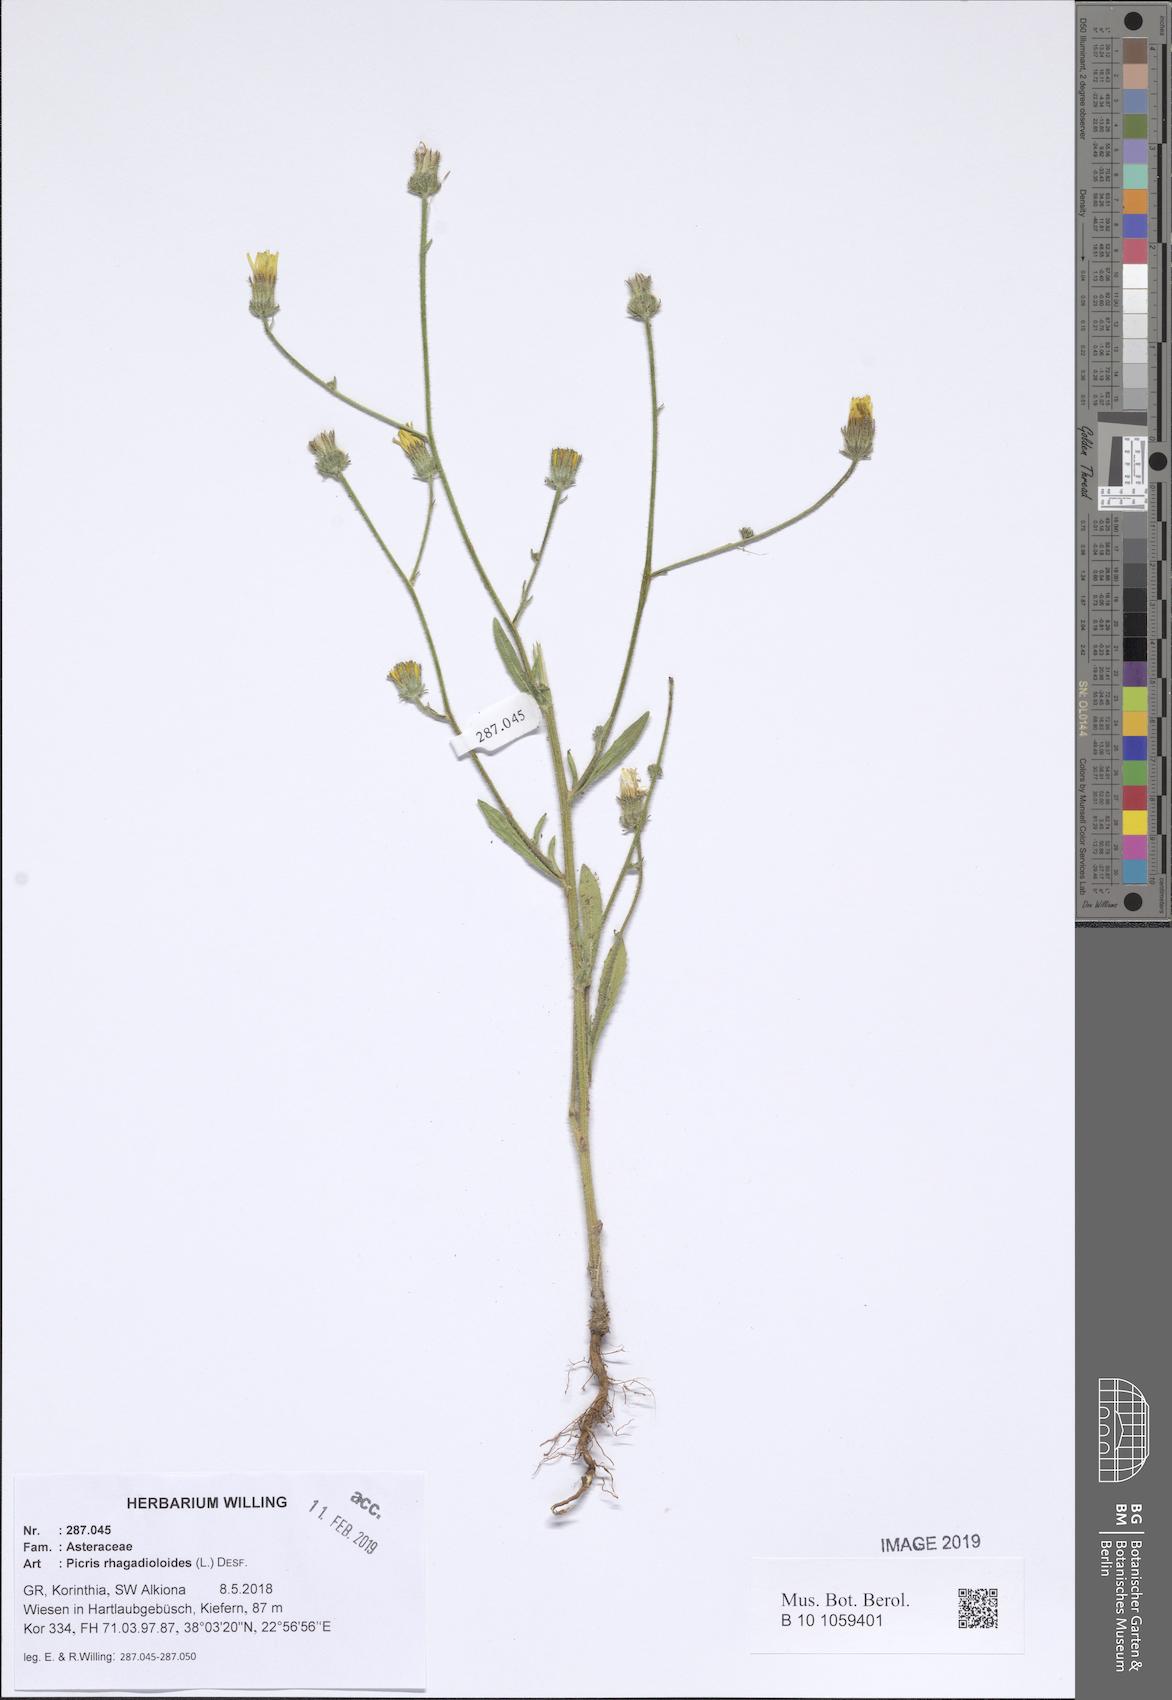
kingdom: Plantae
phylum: Tracheophyta
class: Magnoliopsida
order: Asterales
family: Asteraceae
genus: Picris
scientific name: Picris rhagadioloides
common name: Oxtongue
